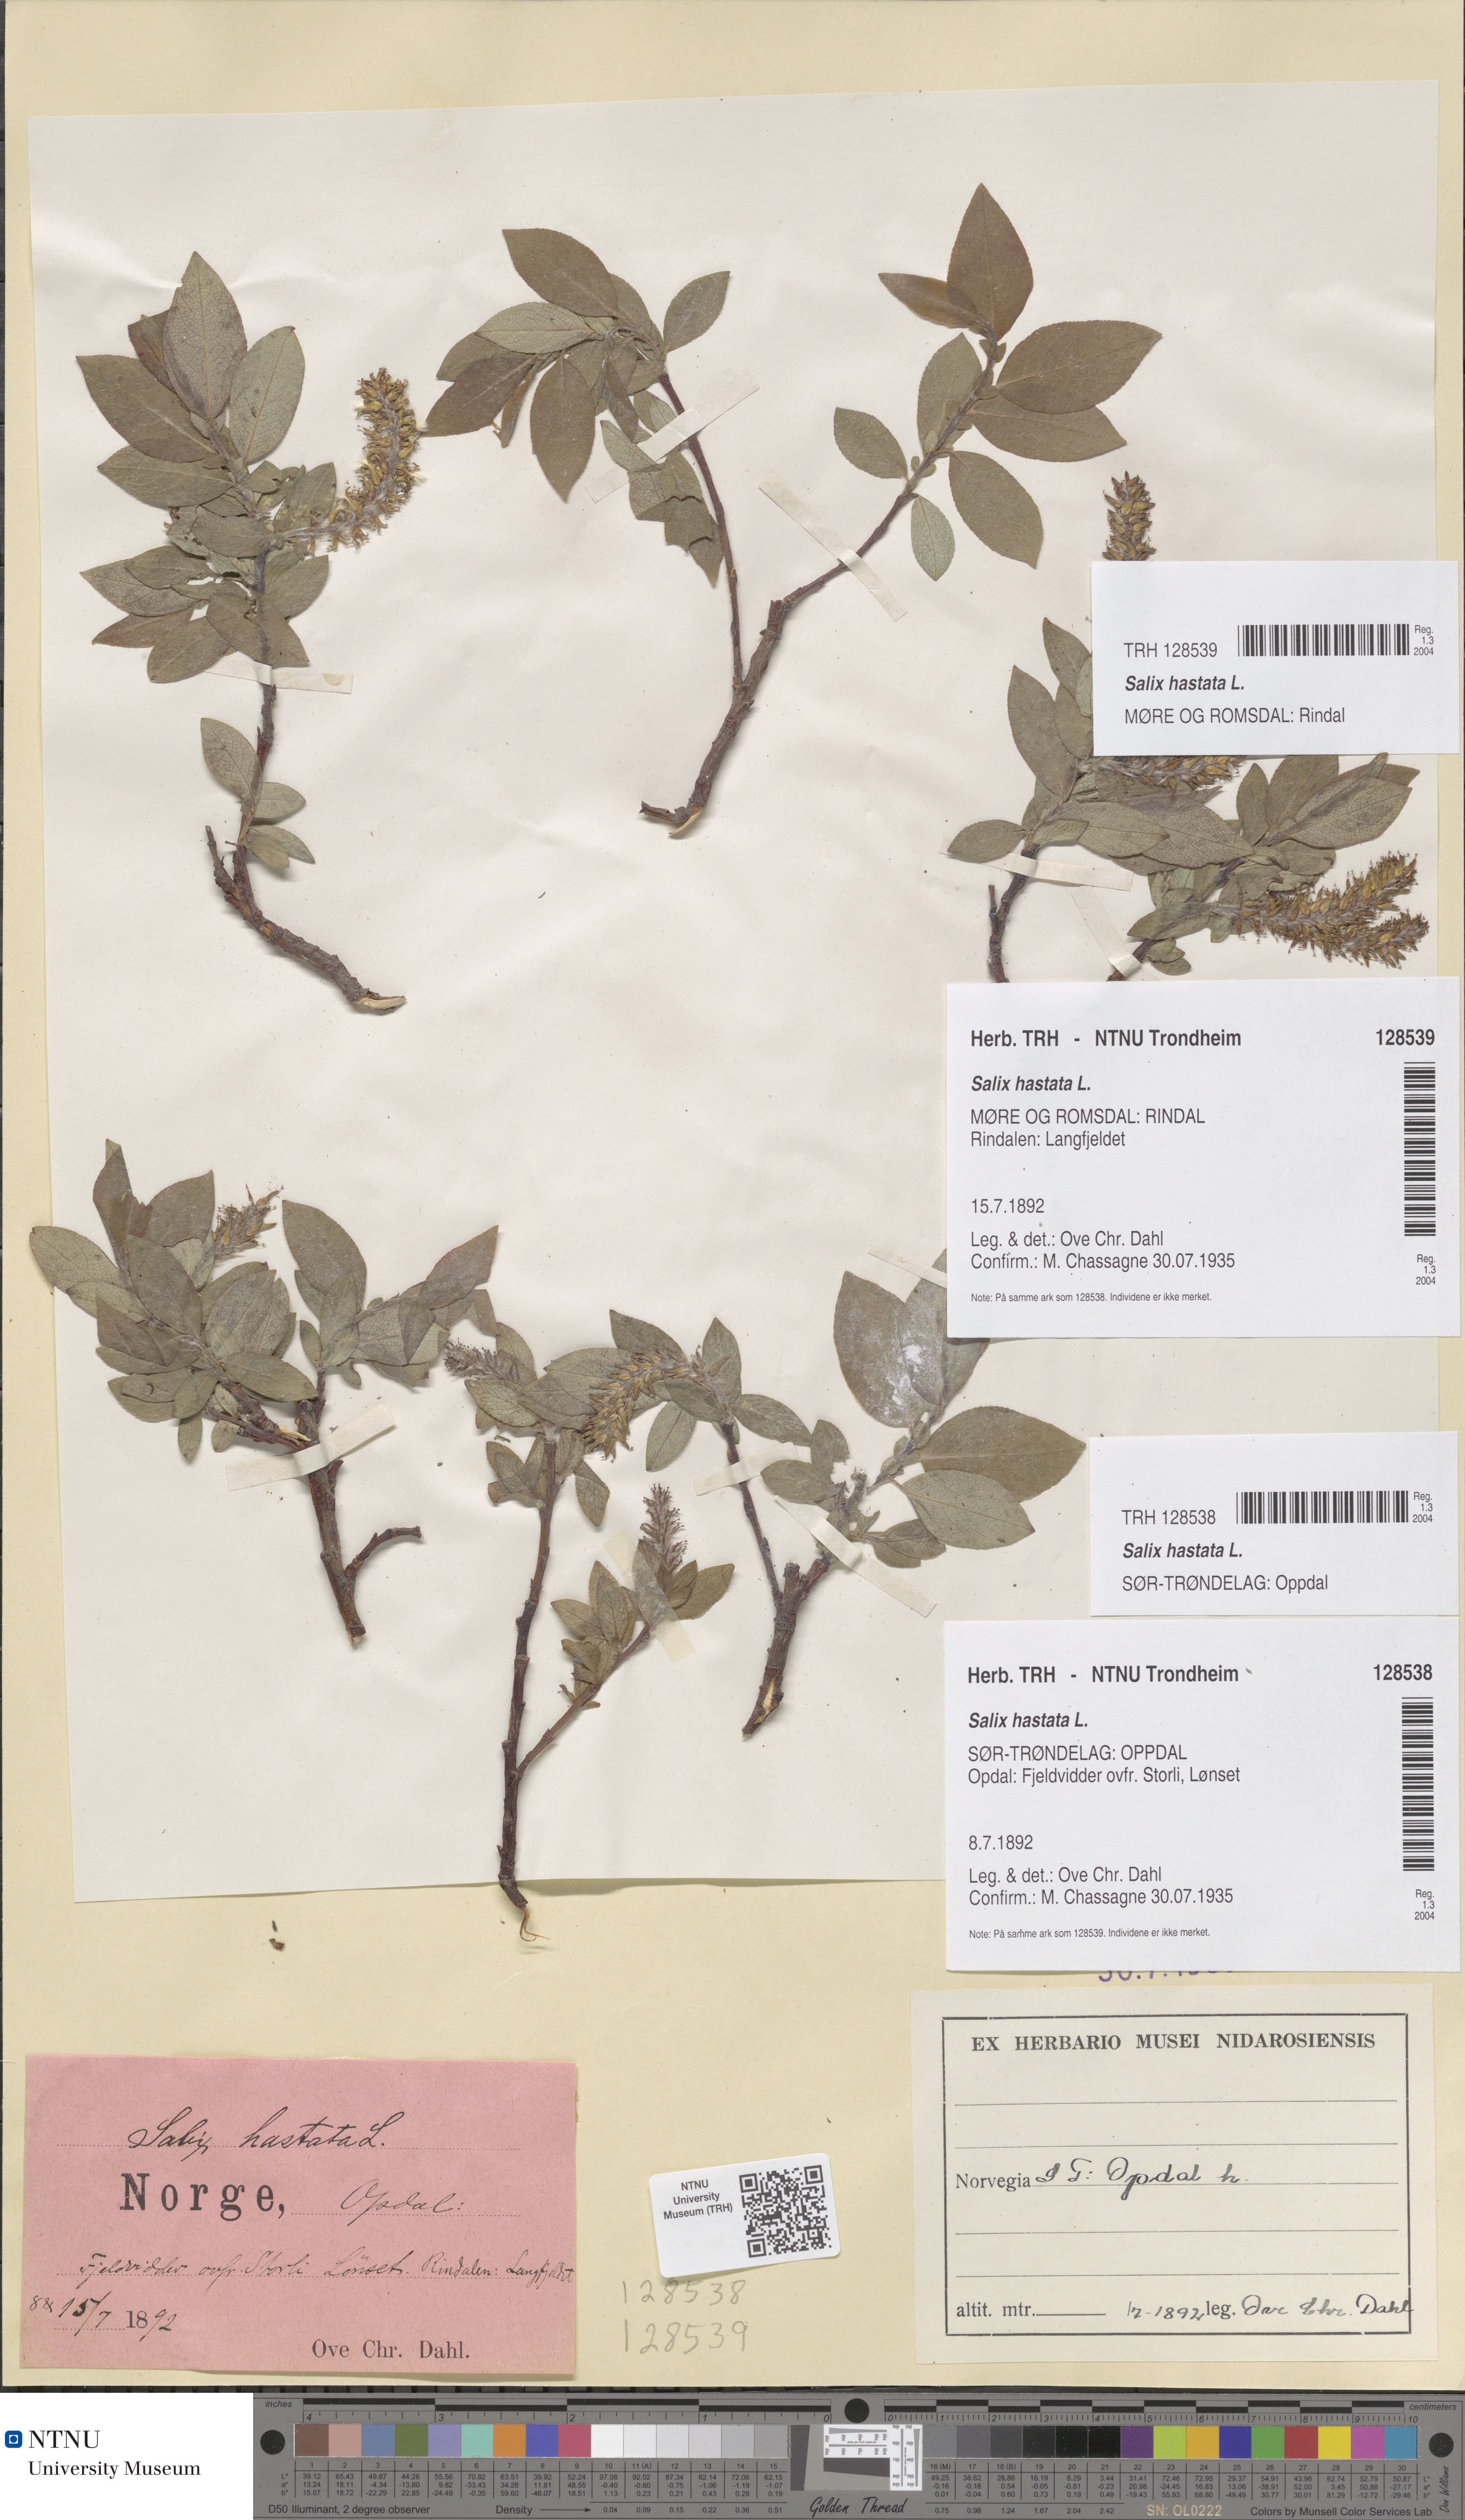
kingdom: Plantae
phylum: Tracheophyta
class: Magnoliopsida
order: Malpighiales
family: Salicaceae
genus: Salix
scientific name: Salix hastata
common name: Halberd willow
